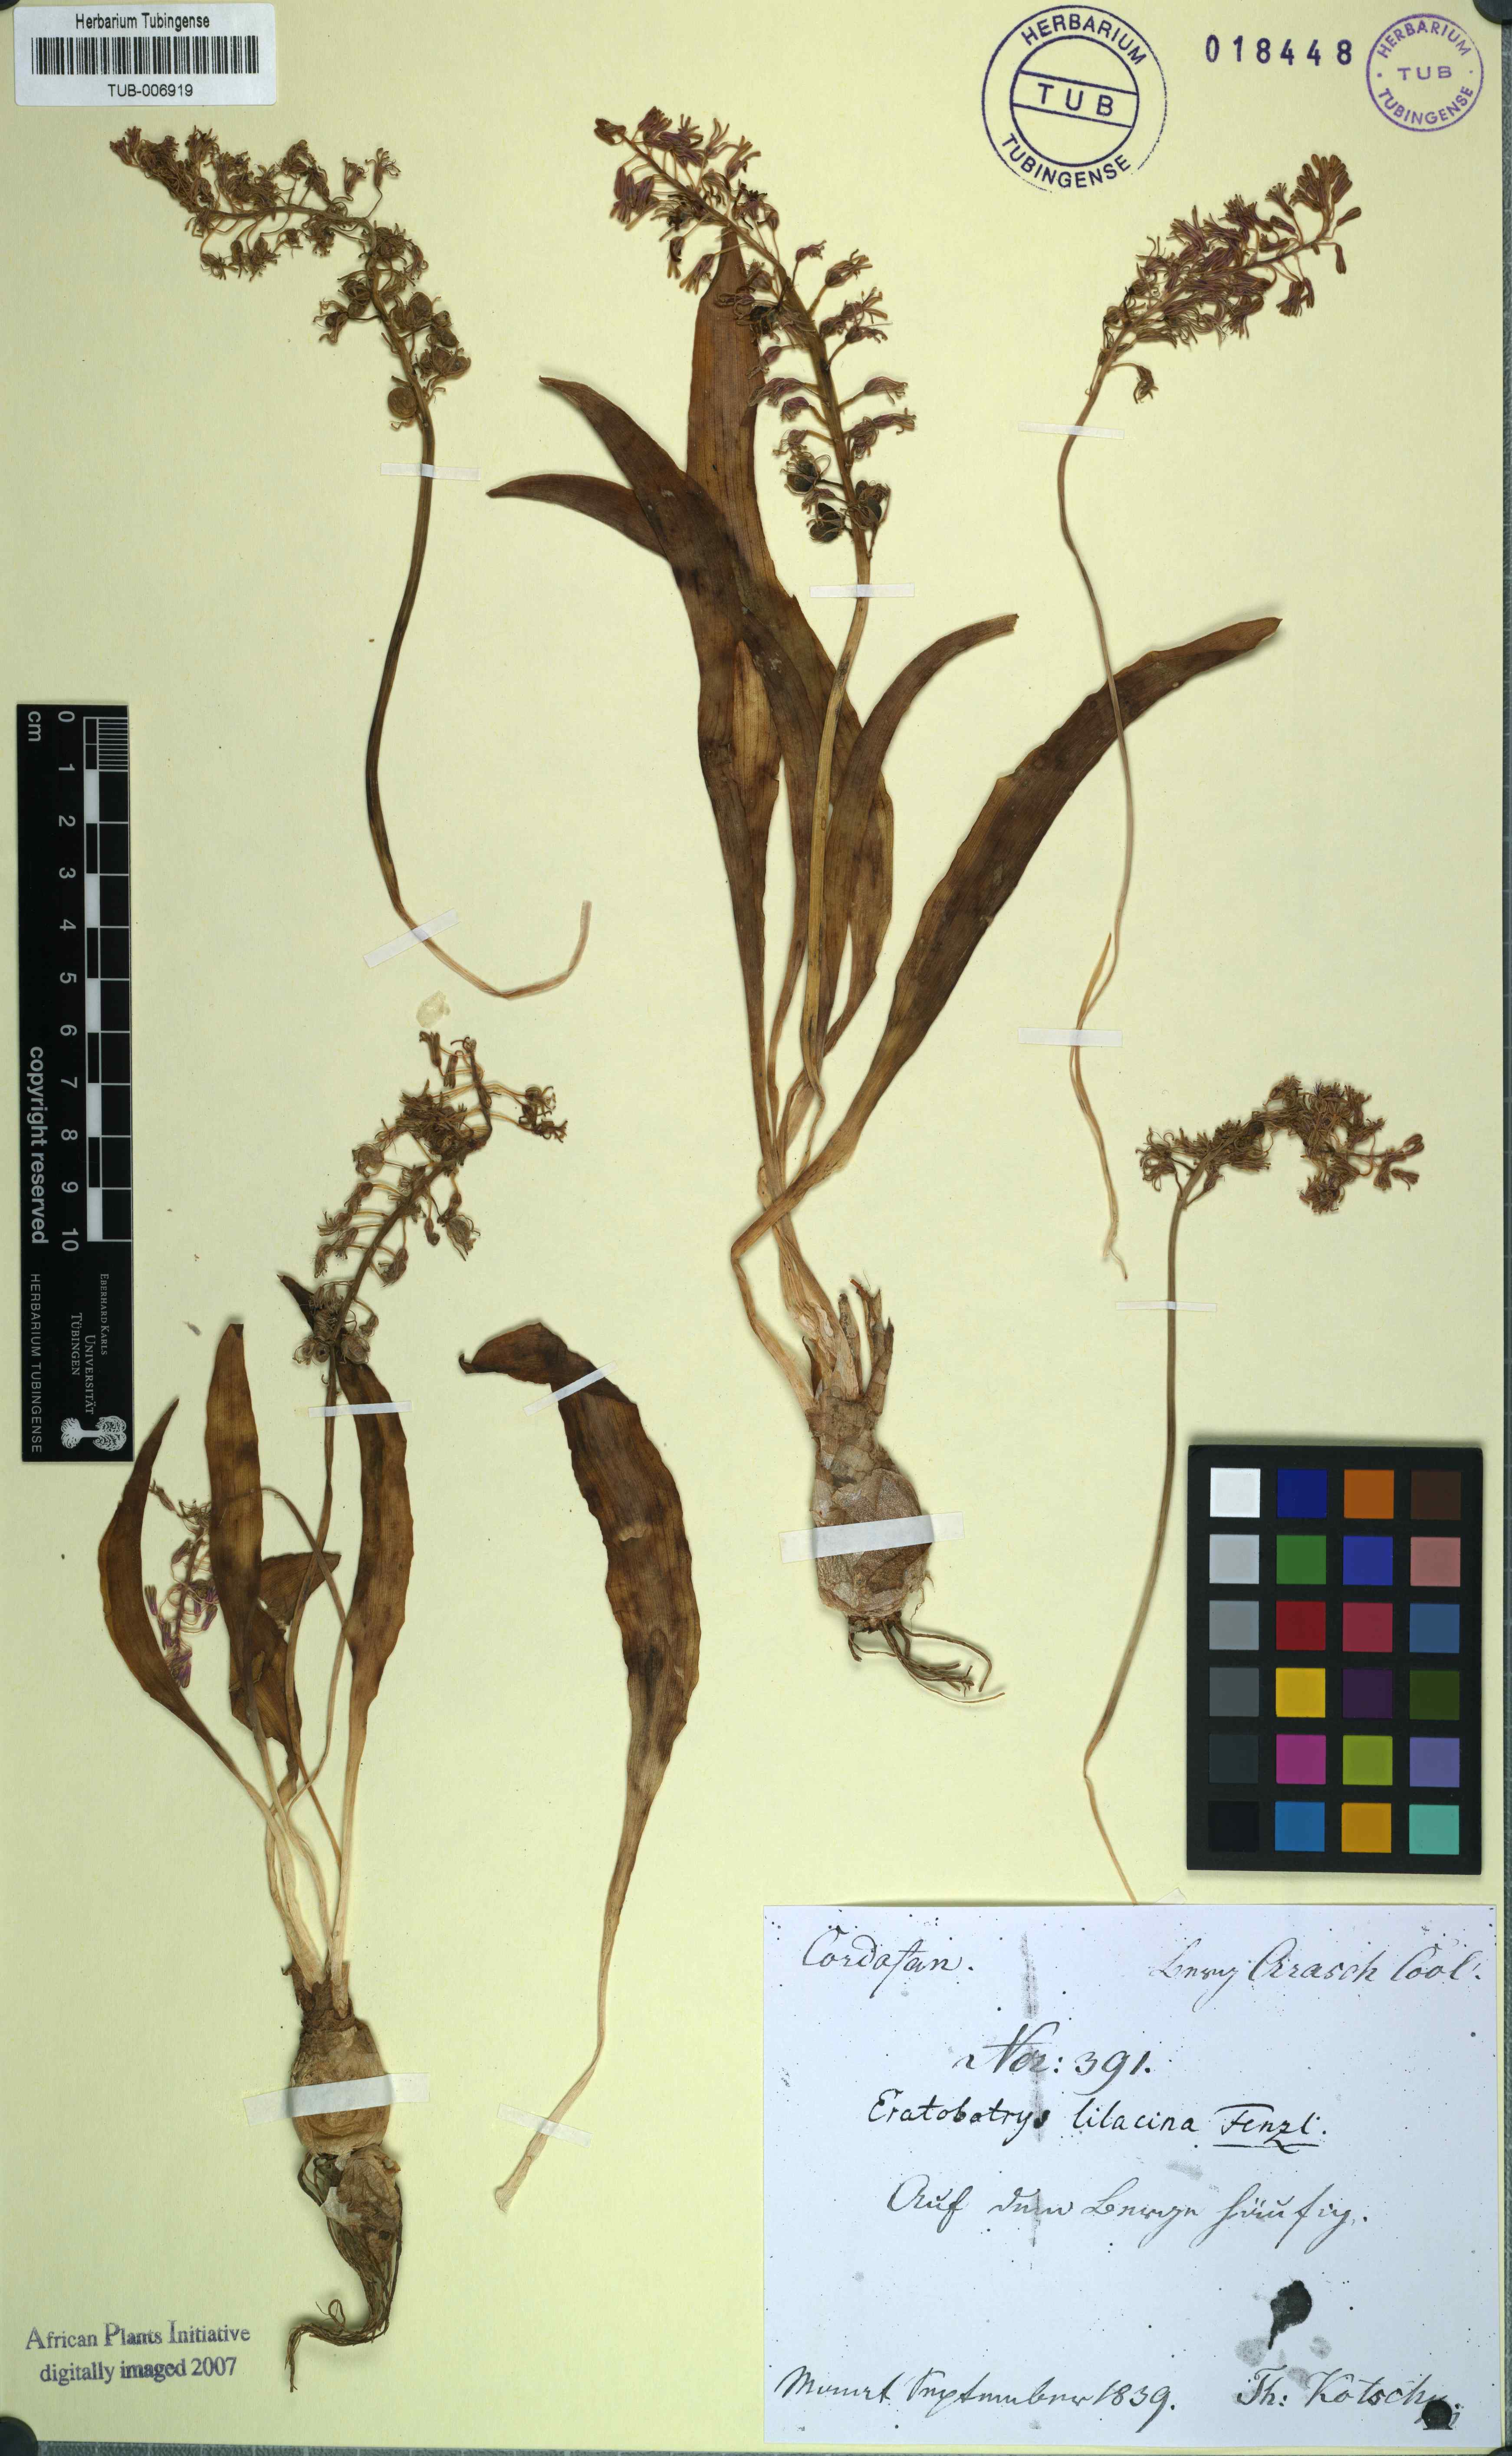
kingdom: Plantae
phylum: Tracheophyta
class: Liliopsida
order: Asparagales
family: Asparagaceae
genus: Ledebouria
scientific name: Ledebouria lilacina
